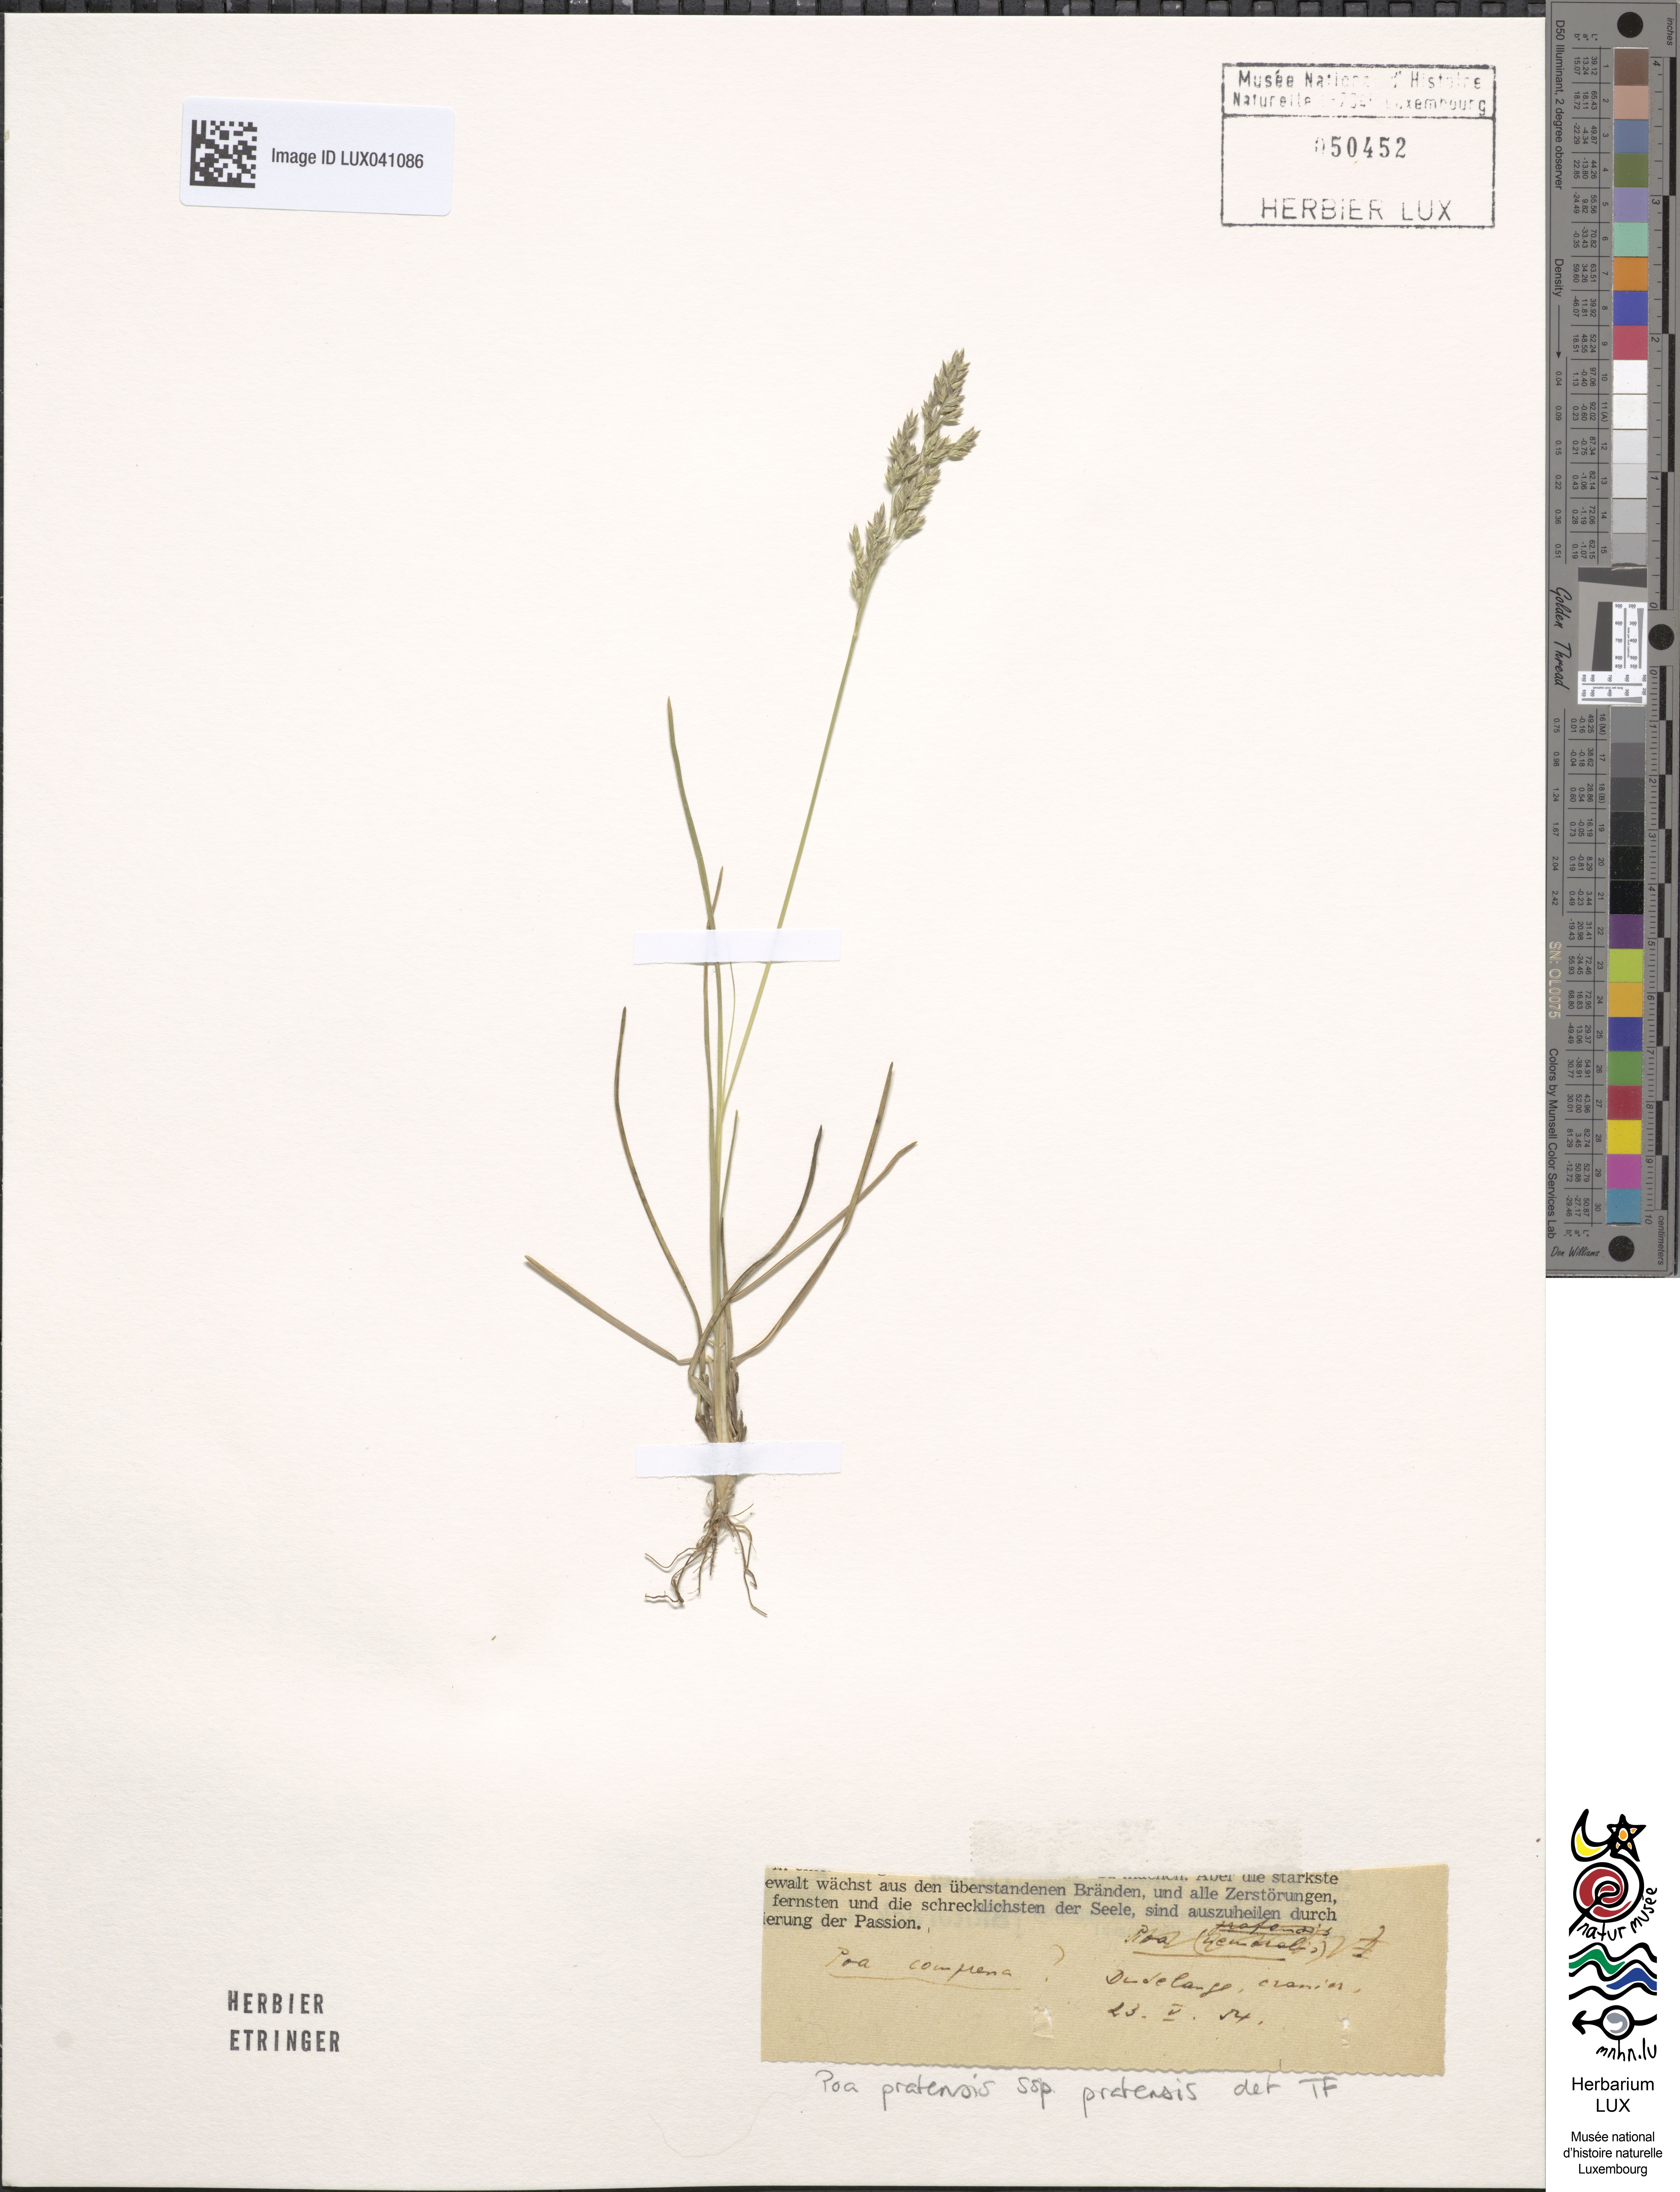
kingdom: Plantae
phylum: Tracheophyta
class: Liliopsida
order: Poales
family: Poaceae
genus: Poa
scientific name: Poa pratensis
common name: Kentucky bluegrass
